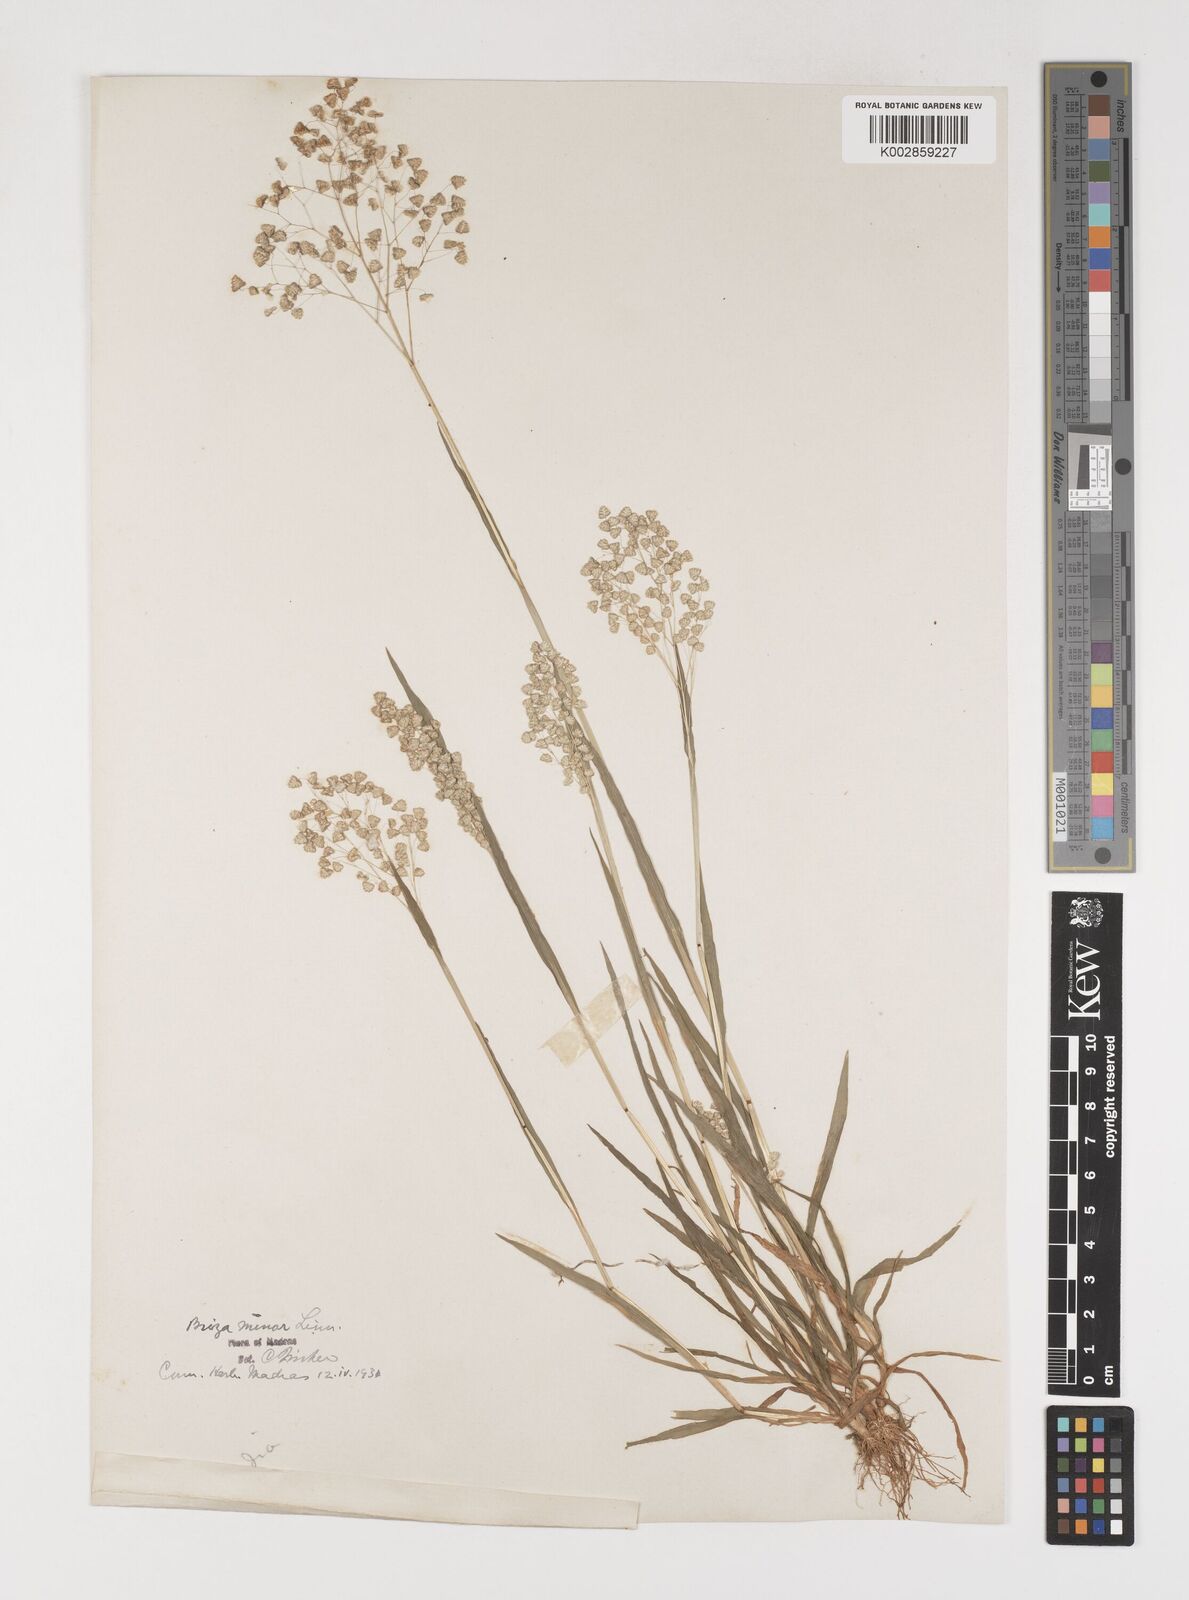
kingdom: Plantae
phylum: Tracheophyta
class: Liliopsida
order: Poales
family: Poaceae
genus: Briza
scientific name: Briza minor
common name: Lesser quaking-grass
